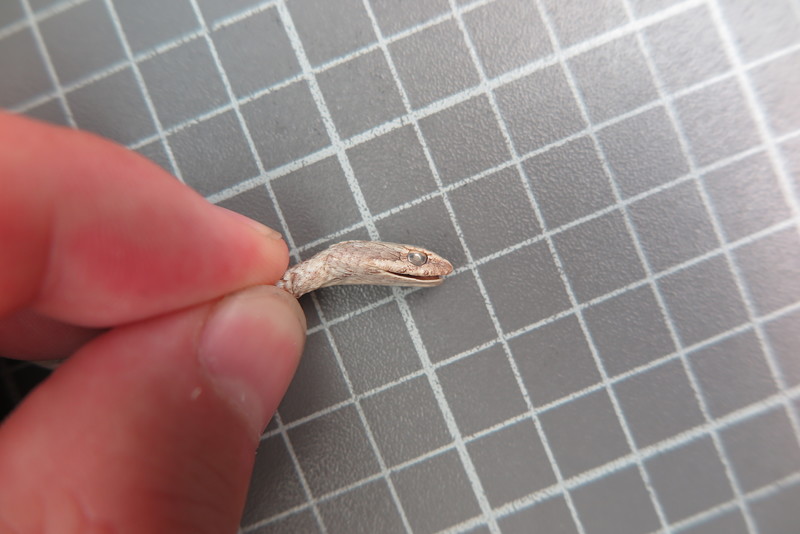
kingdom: Animalia
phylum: Chordata
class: Squamata
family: Psammophiidae
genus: Mimophis
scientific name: Mimophis
